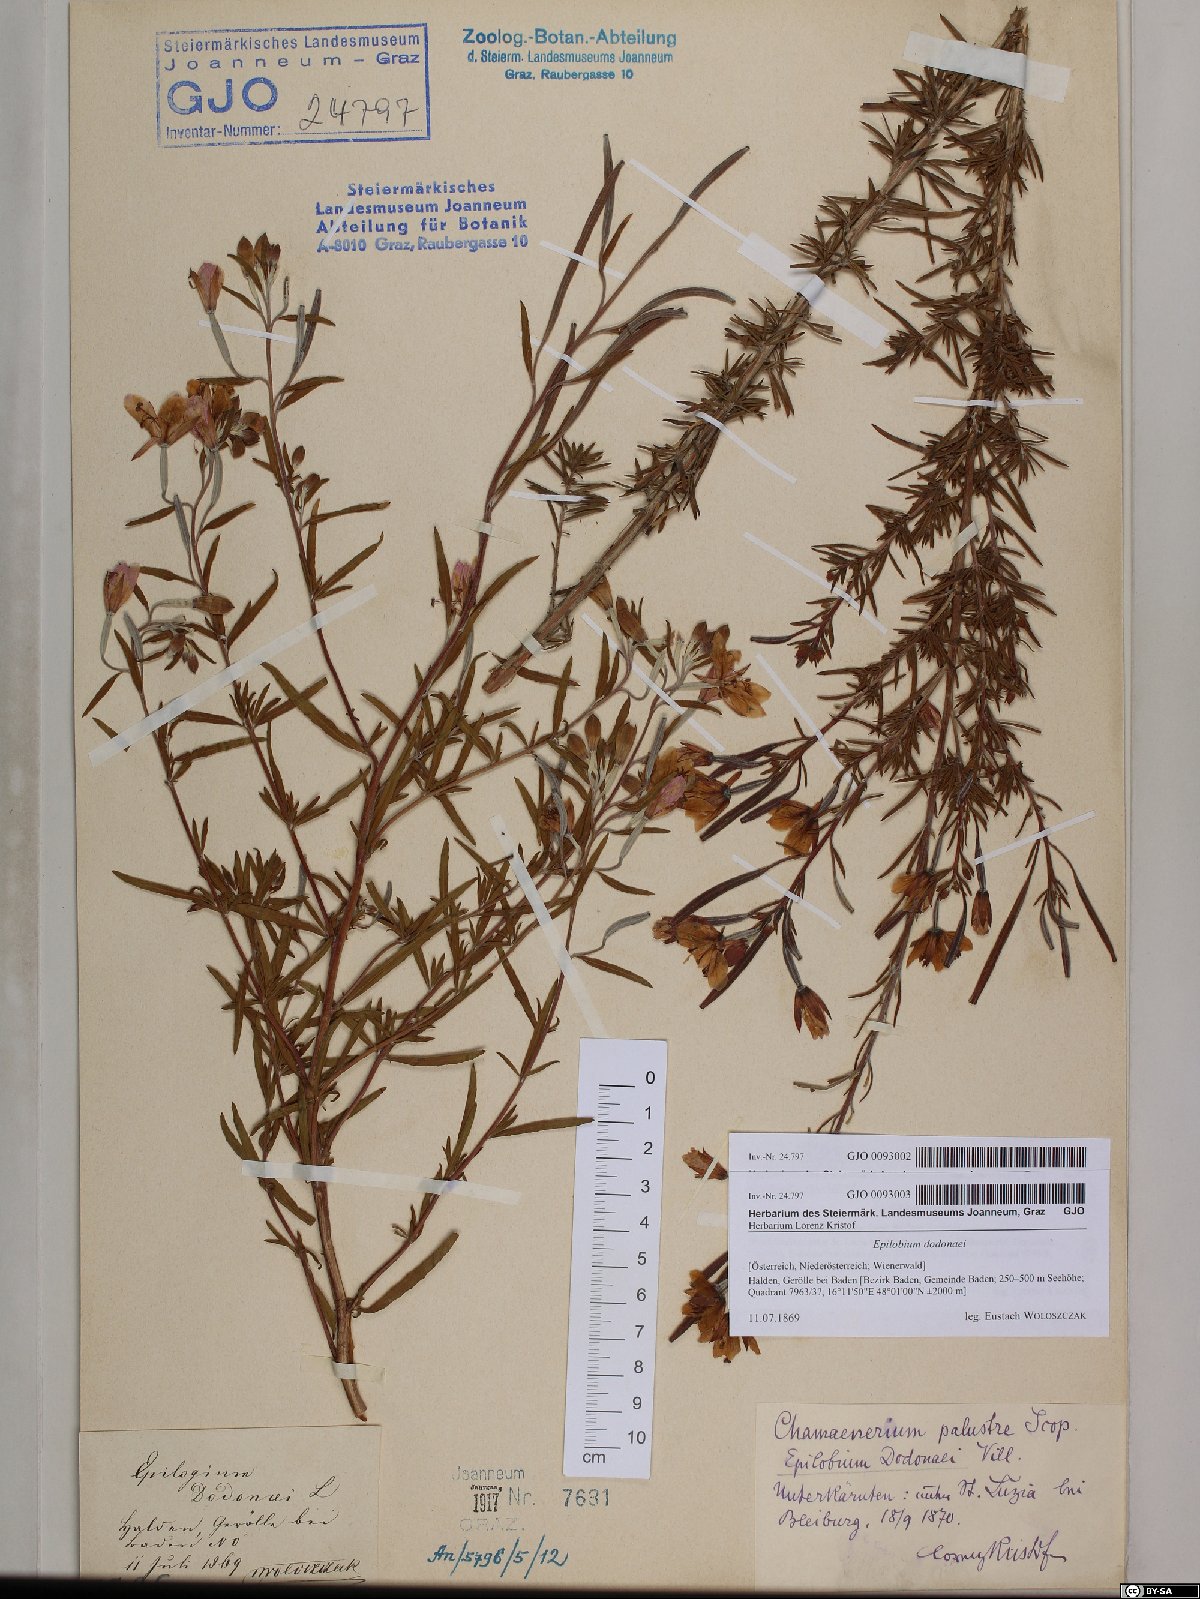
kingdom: Plantae
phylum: Tracheophyta
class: Magnoliopsida
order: Myrtales
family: Onagraceae
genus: Chamaenerion
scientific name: Chamaenerion dodonaei
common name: Rosemary-leaved willowherb
